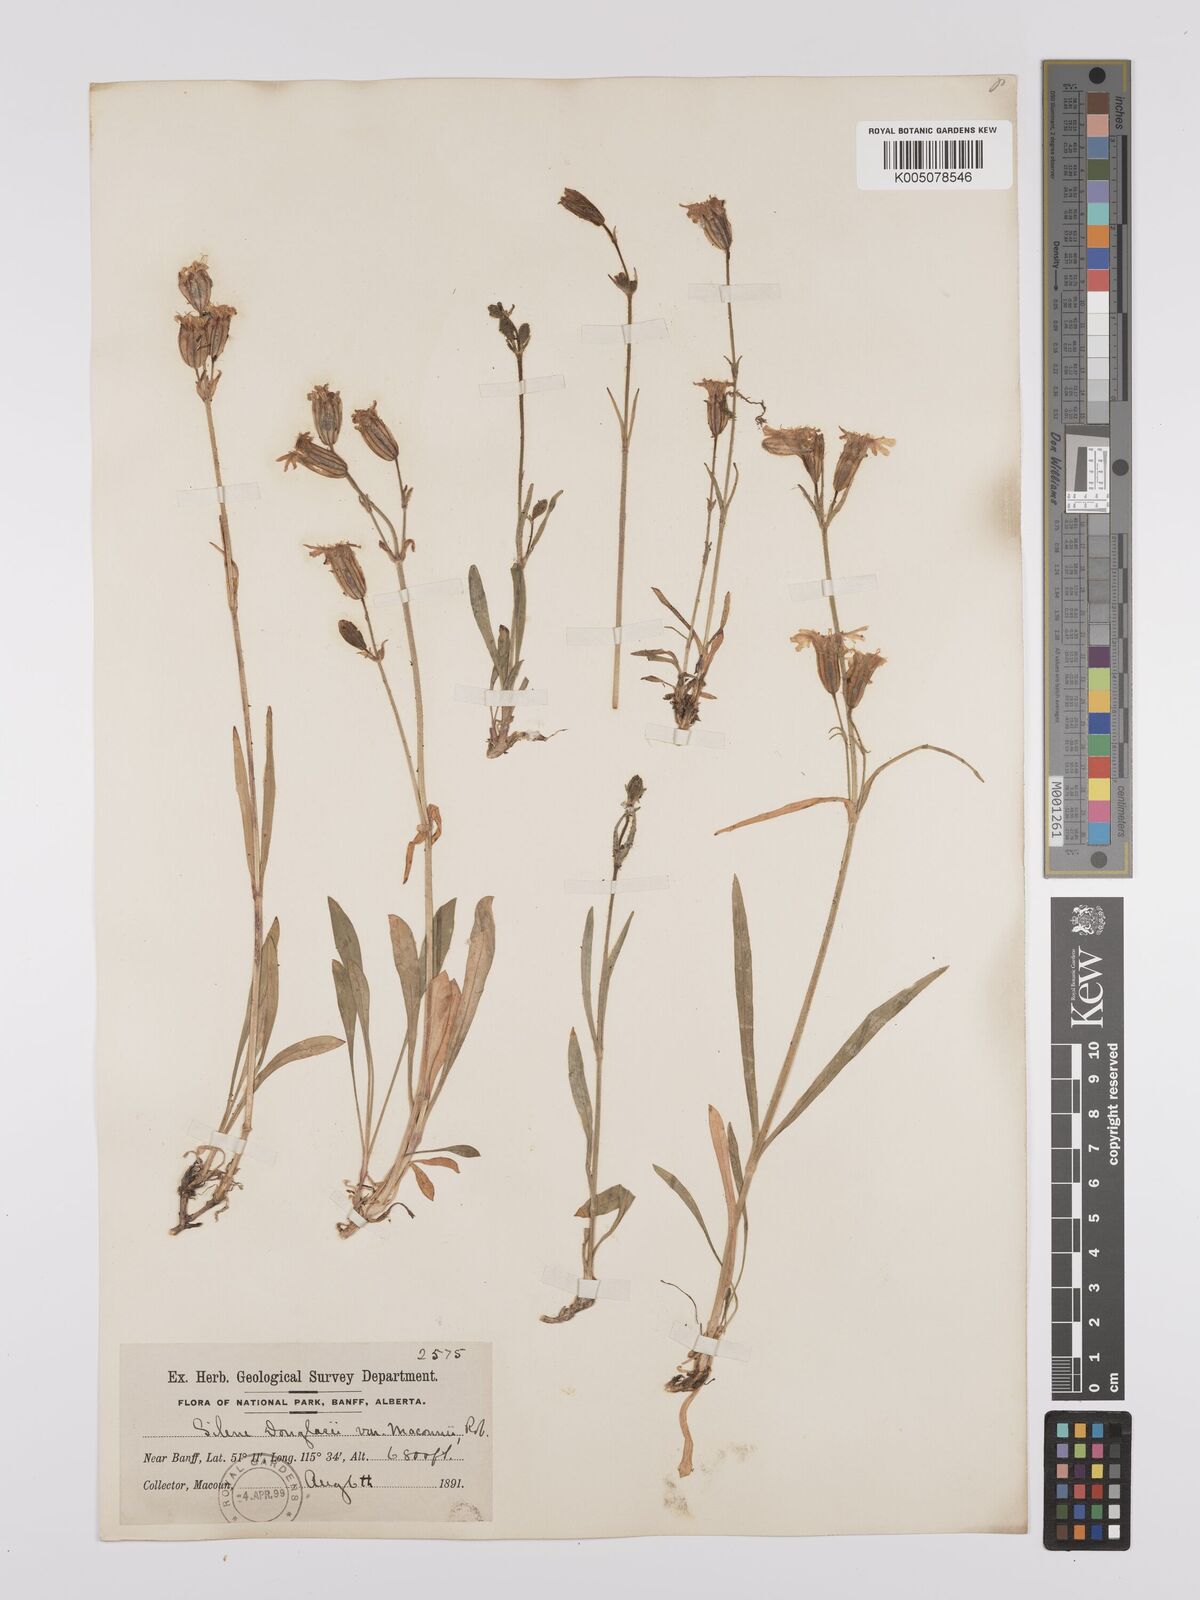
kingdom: Plantae
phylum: Tracheophyta
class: Magnoliopsida
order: Caryophyllales
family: Caryophyllaceae
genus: Silene
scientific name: Silene parryi
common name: Parry's campion
